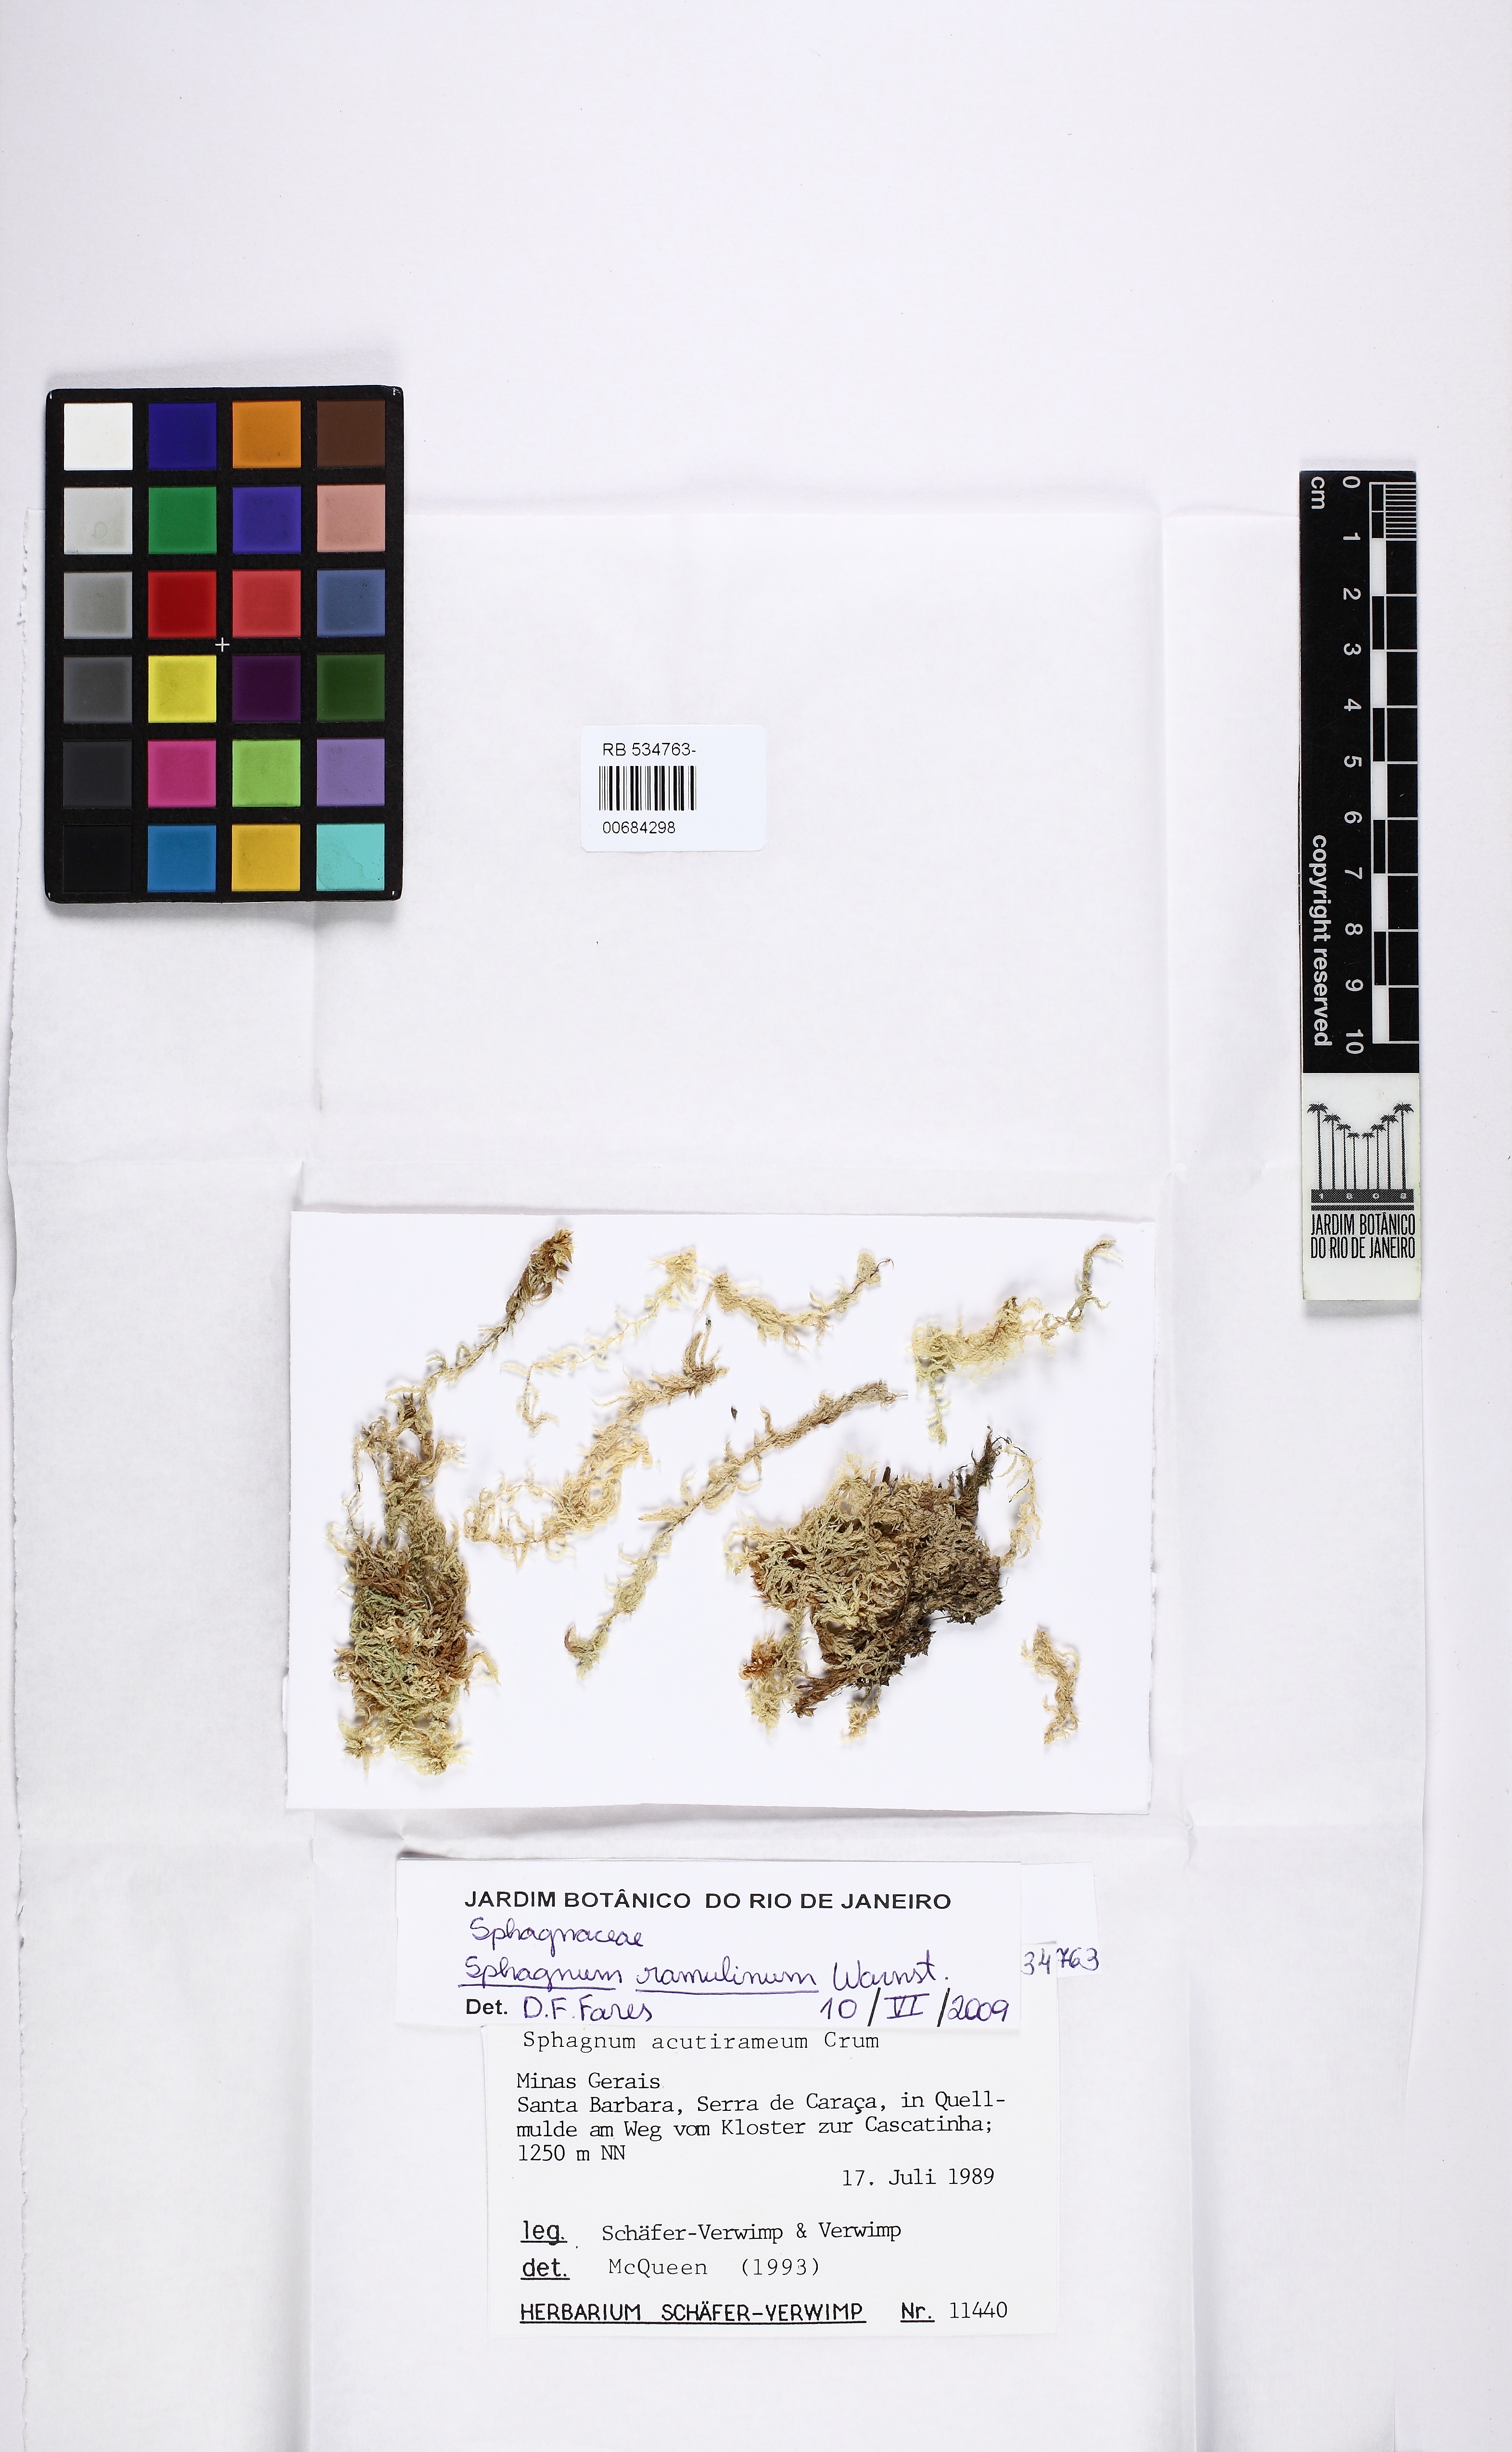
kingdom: Plantae
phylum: Bryophyta
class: Sphagnopsida
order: Sphagnales
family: Sphagnaceae
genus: Sphagnum
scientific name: Sphagnum ramulinum
